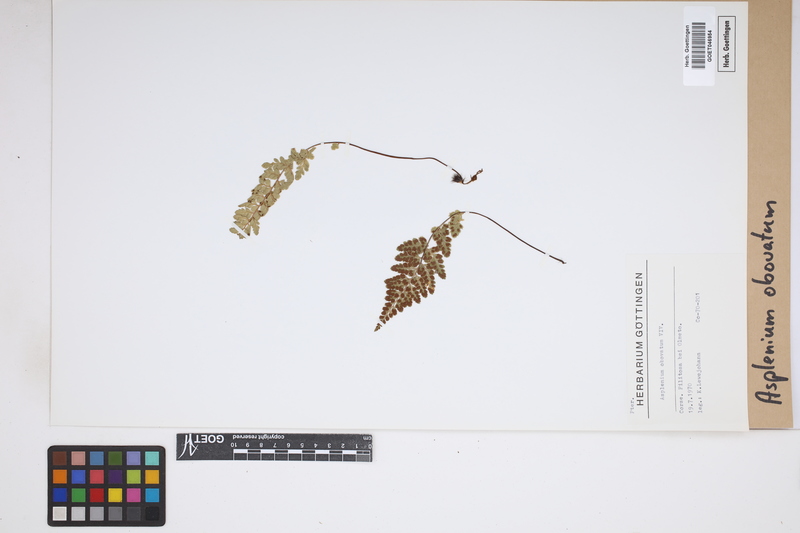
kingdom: Plantae
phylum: Tracheophyta
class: Polypodiopsida
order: Polypodiales
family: Aspleniaceae
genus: Asplenium
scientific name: Asplenium obovatum
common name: Lanceolate spleenwort
